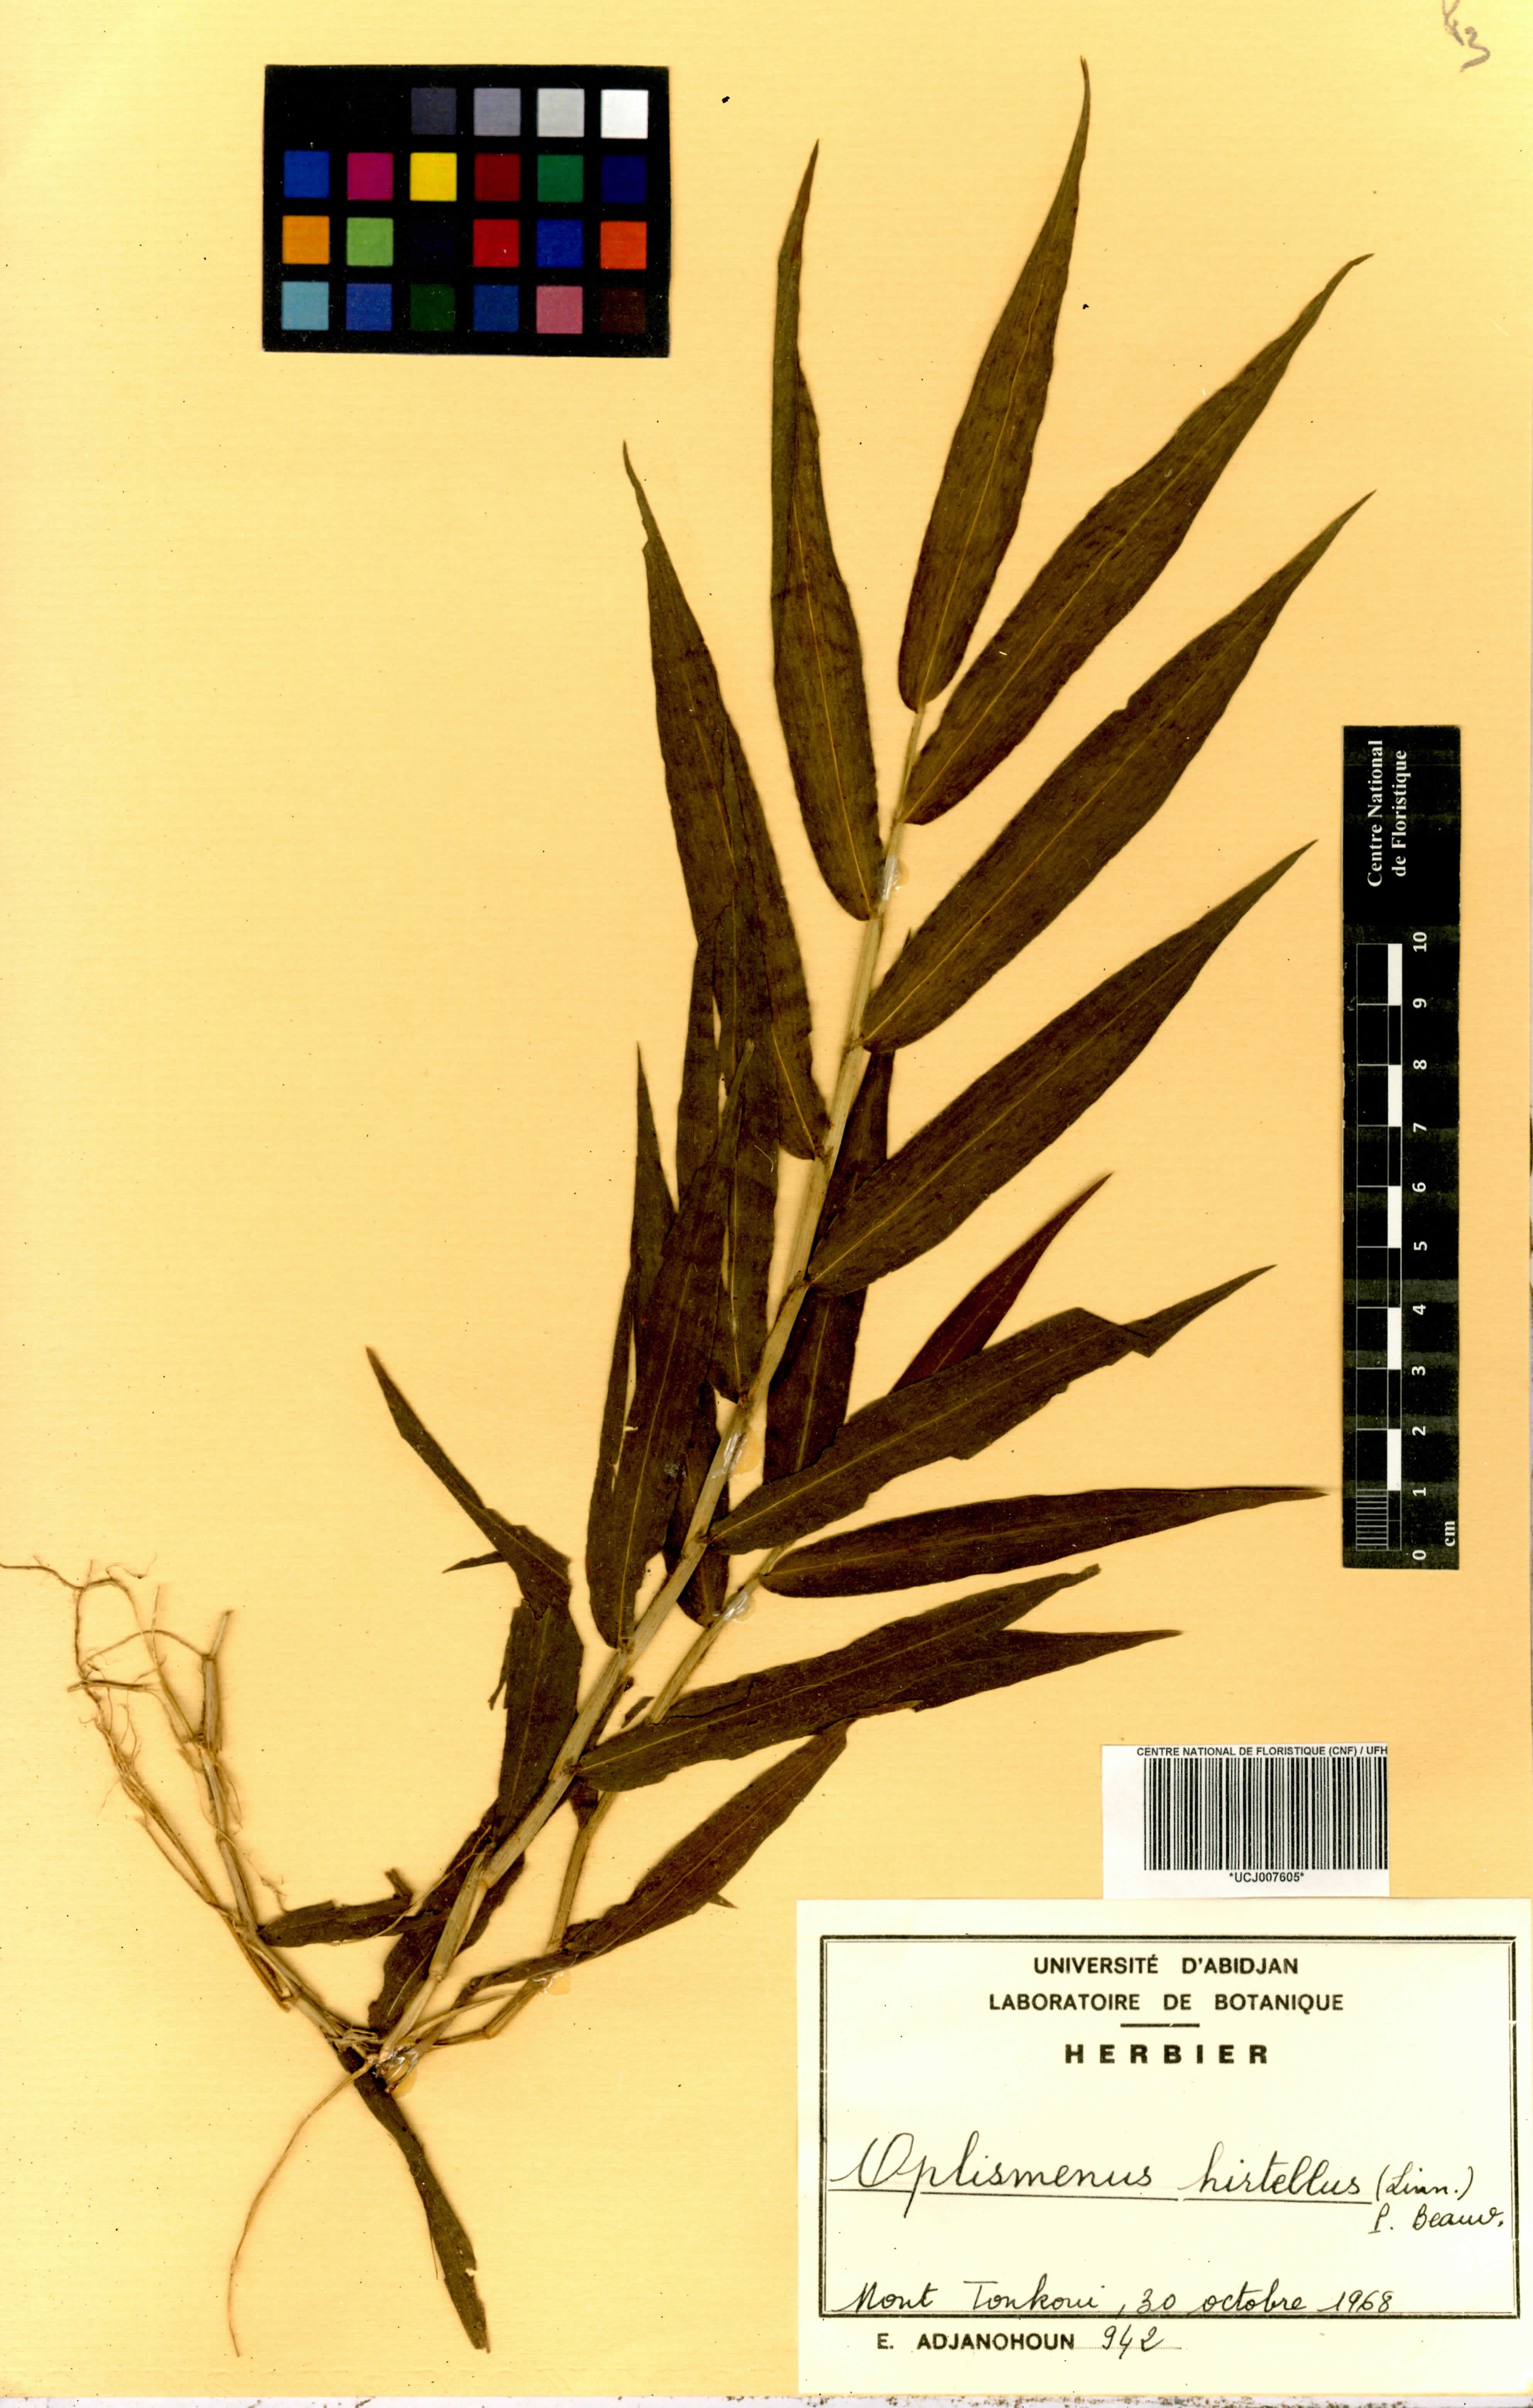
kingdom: Plantae
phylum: Tracheophyta
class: Liliopsida
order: Poales
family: Poaceae
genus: Oplismenus
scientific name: Oplismenus hirtellus
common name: Basketgrass
